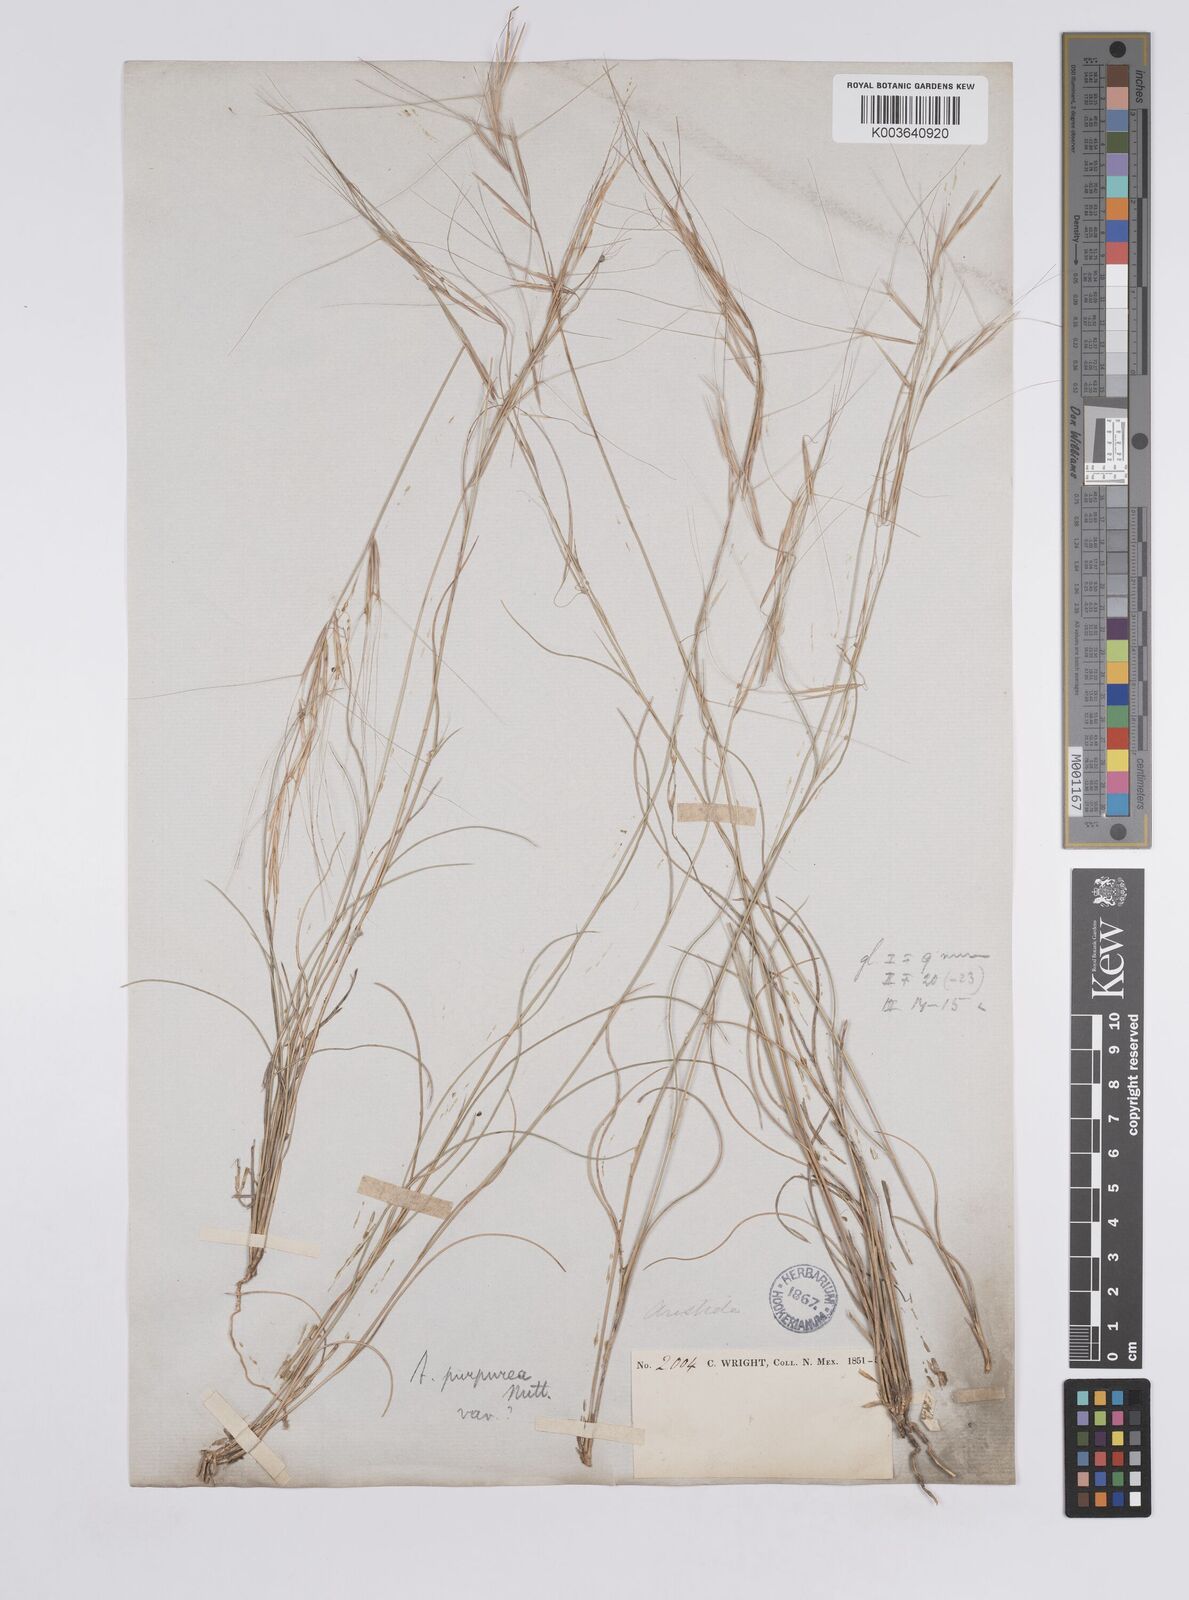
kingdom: Plantae
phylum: Tracheophyta
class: Liliopsida
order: Poales
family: Poaceae
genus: Aristida
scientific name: Aristida purpurea
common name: Purple threeawn
